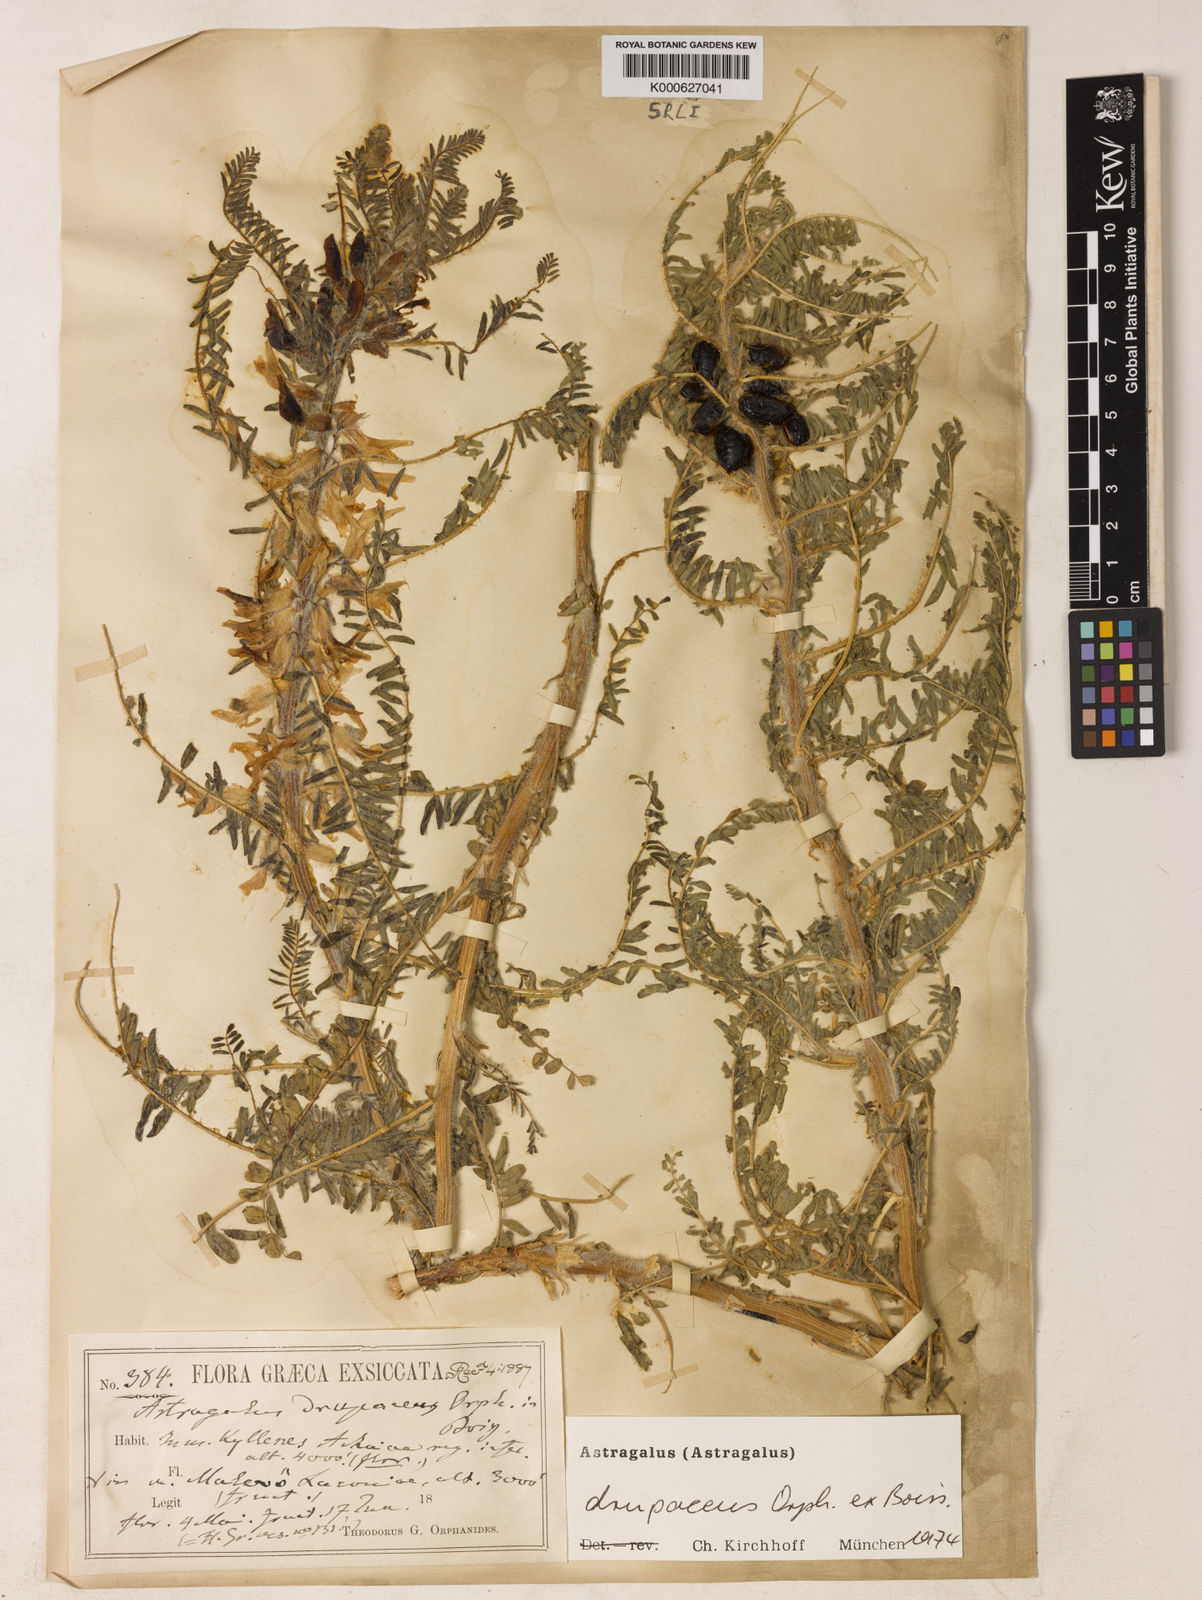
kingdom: Plantae
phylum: Tracheophyta
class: Magnoliopsida
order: Fabales
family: Fabaceae
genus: Astragalus
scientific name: Astragalus drupaceus
